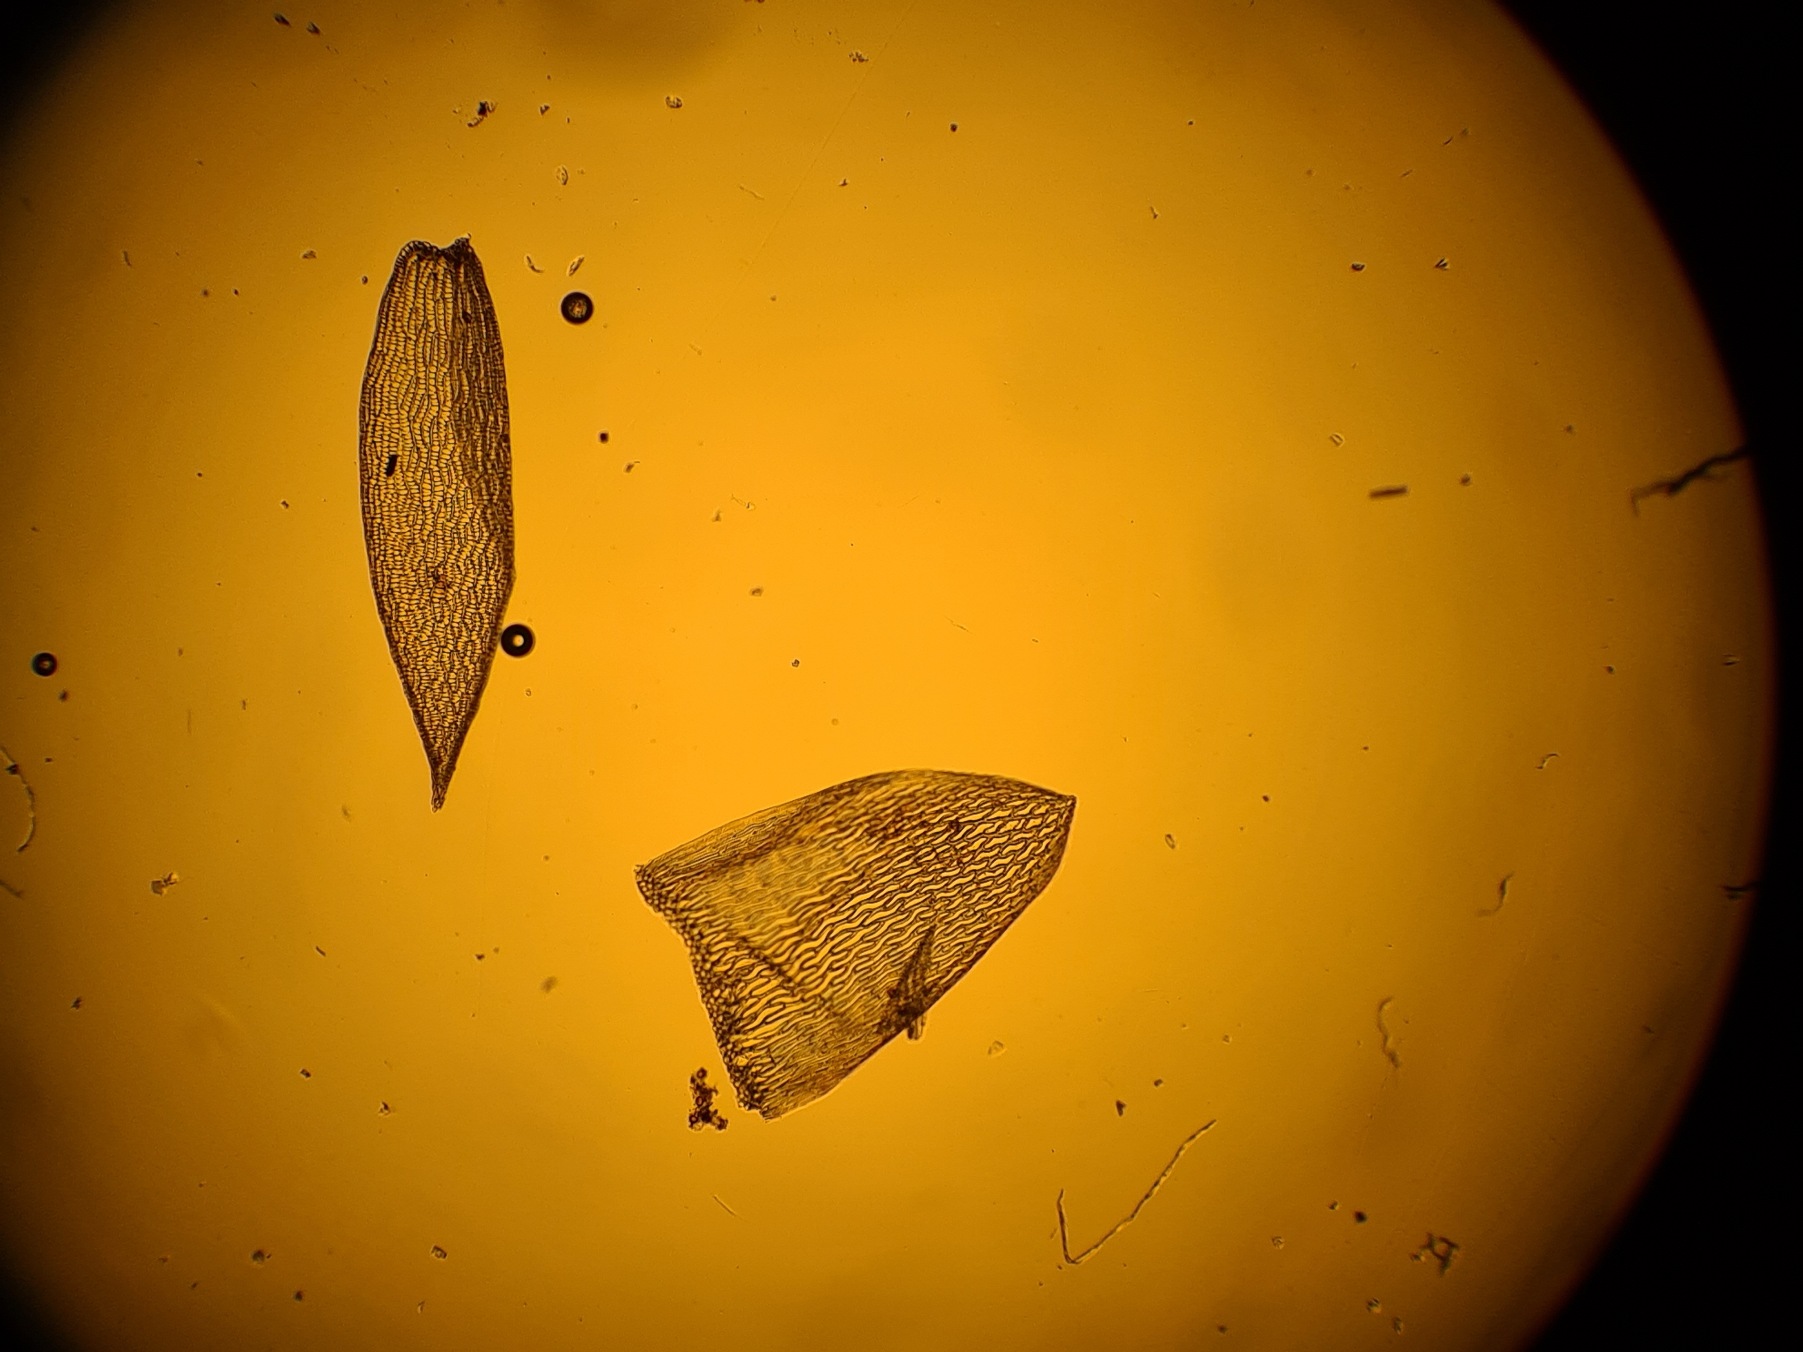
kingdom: Plantae
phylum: Bryophyta
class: Sphagnopsida
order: Sphagnales
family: Sphagnaceae
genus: Sphagnum
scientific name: Sphagnum fallax
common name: Brodspids-tørvemos
